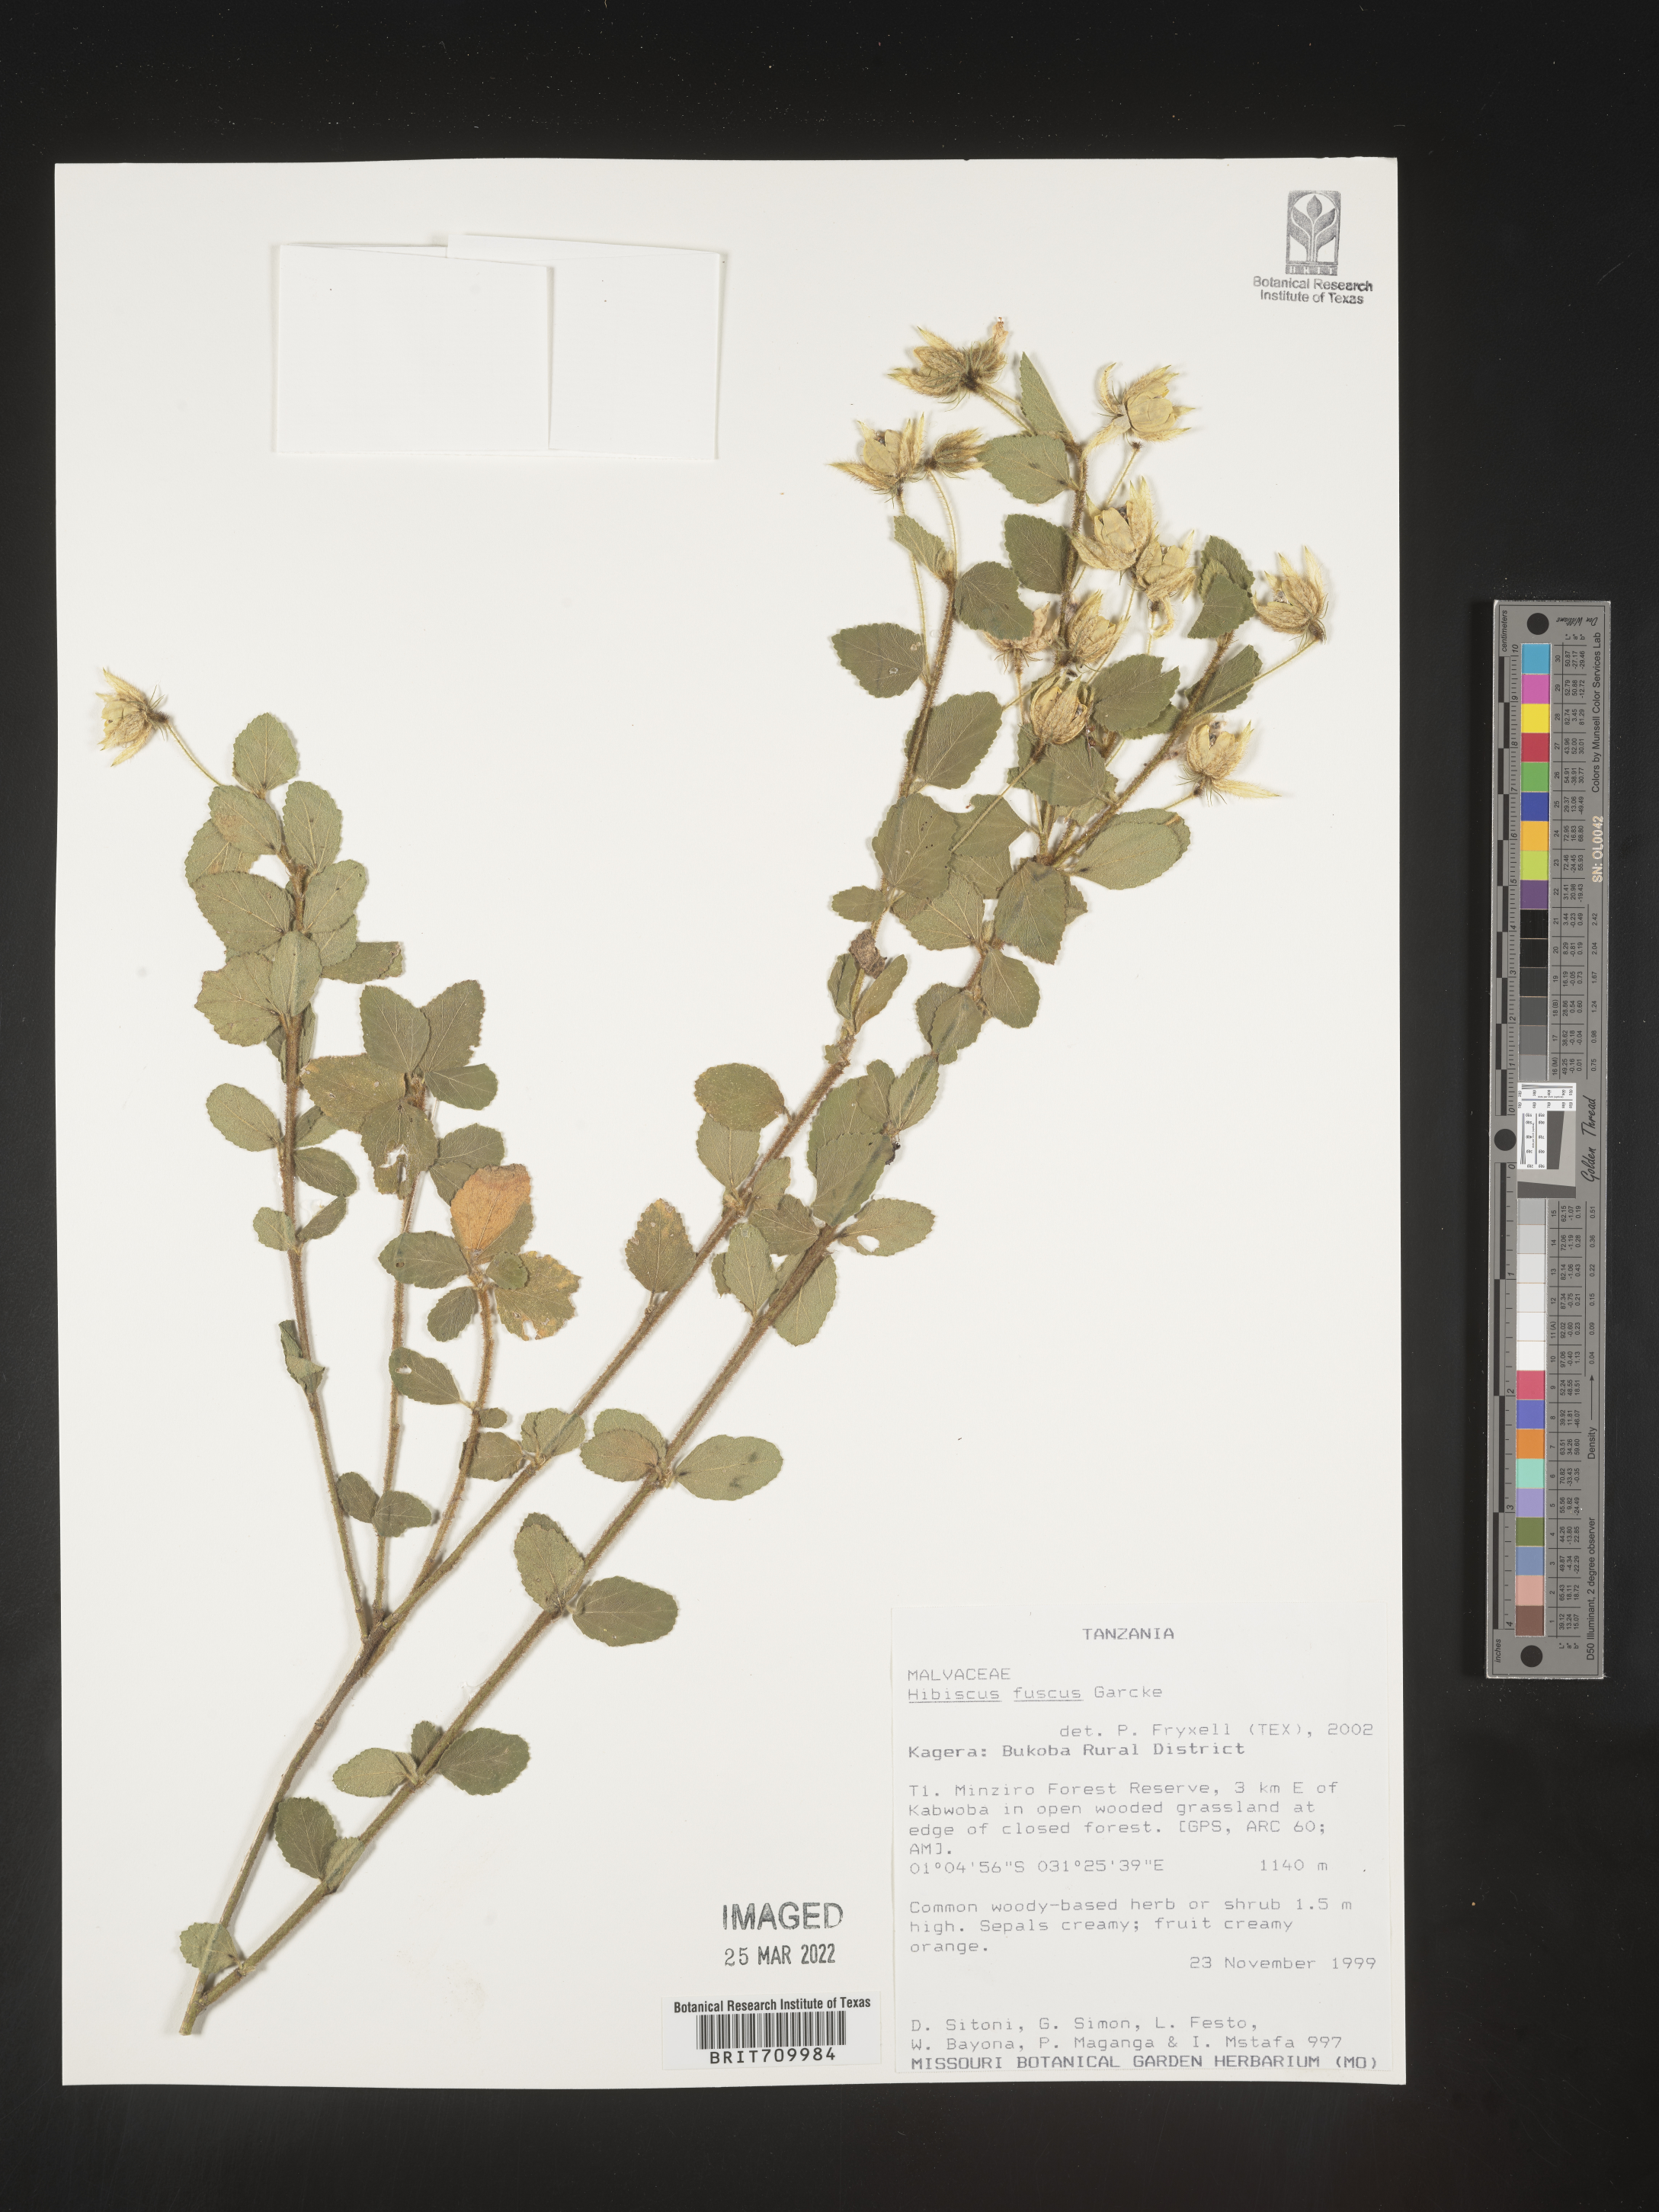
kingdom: Plantae
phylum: Tracheophyta
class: Magnoliopsida
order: Malvales
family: Malvaceae
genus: Hibiscus
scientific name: Hibiscus
